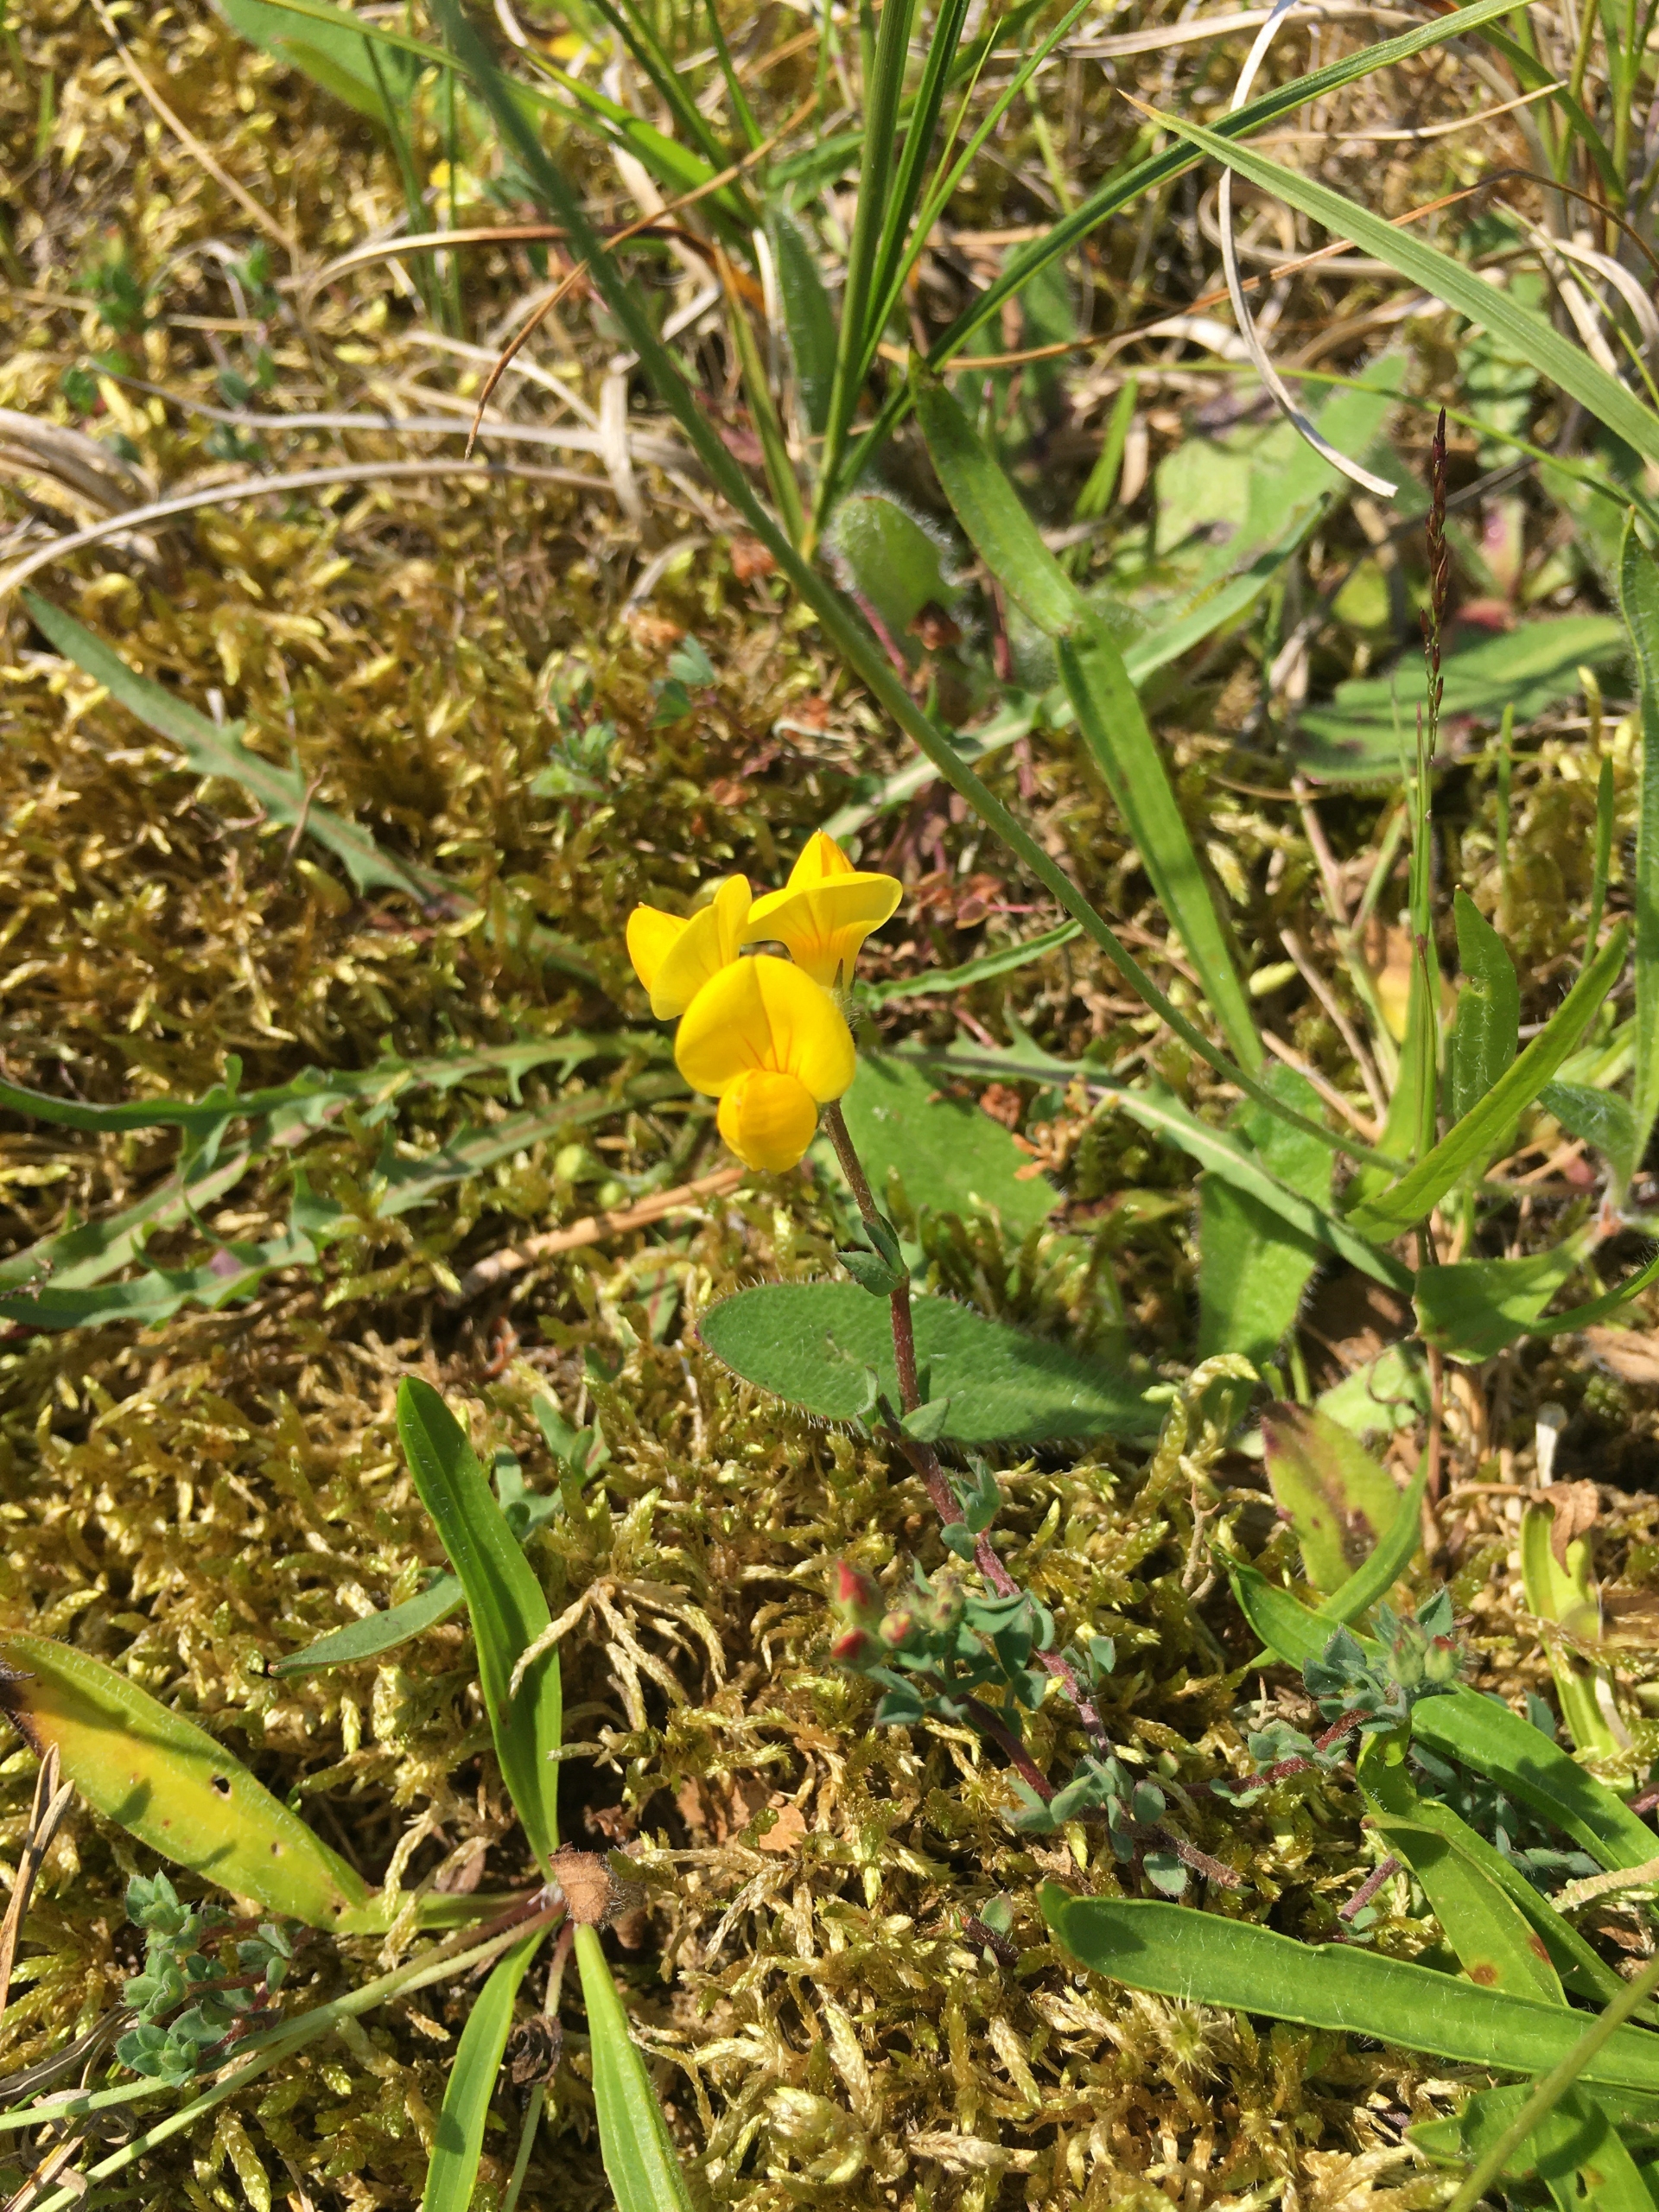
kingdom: Plantae
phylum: Tracheophyta
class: Magnoliopsida
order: Fabales
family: Fabaceae
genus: Lotus
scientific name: Lotus corniculatus
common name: Almindelig kællingetand
